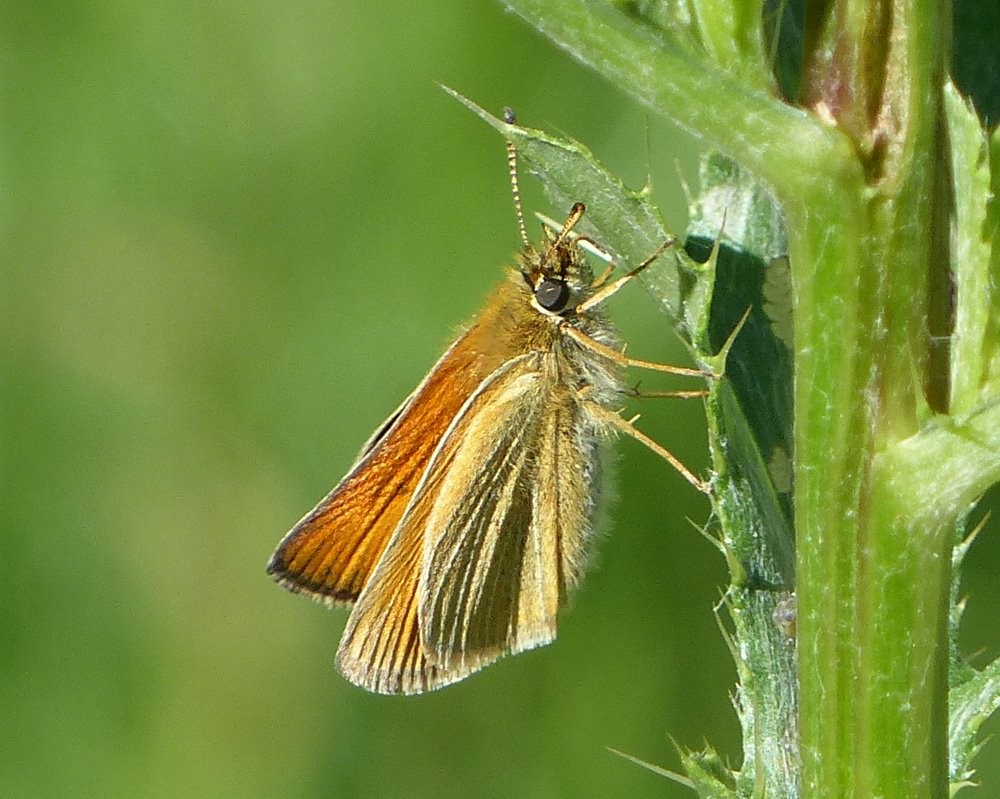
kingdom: Animalia
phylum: Arthropoda
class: Insecta
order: Lepidoptera
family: Hesperiidae
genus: Thymelicus
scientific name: Thymelicus lineola
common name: European Skipper
